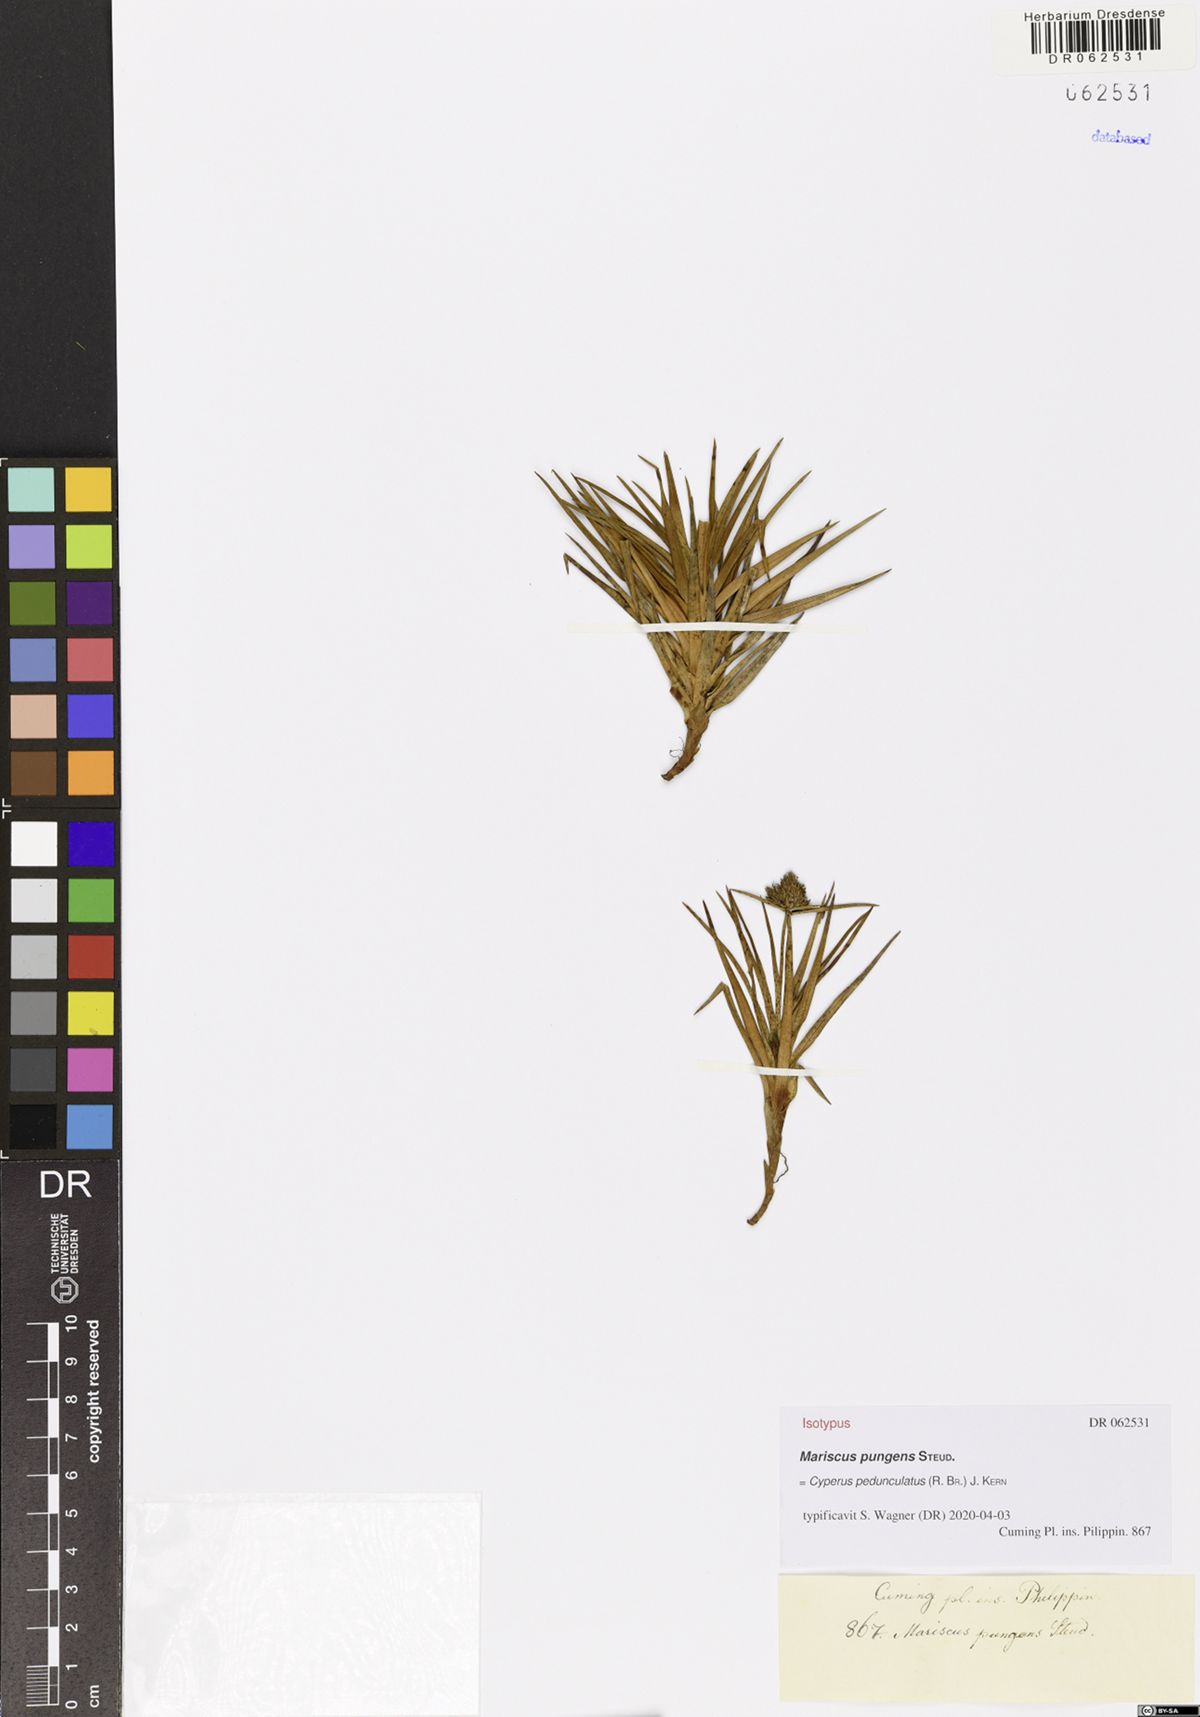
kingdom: Plantae
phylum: Tracheophyta
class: Liliopsida
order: Poales
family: Cyperaceae
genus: Cyperus
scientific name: Cyperus pedunculatus
